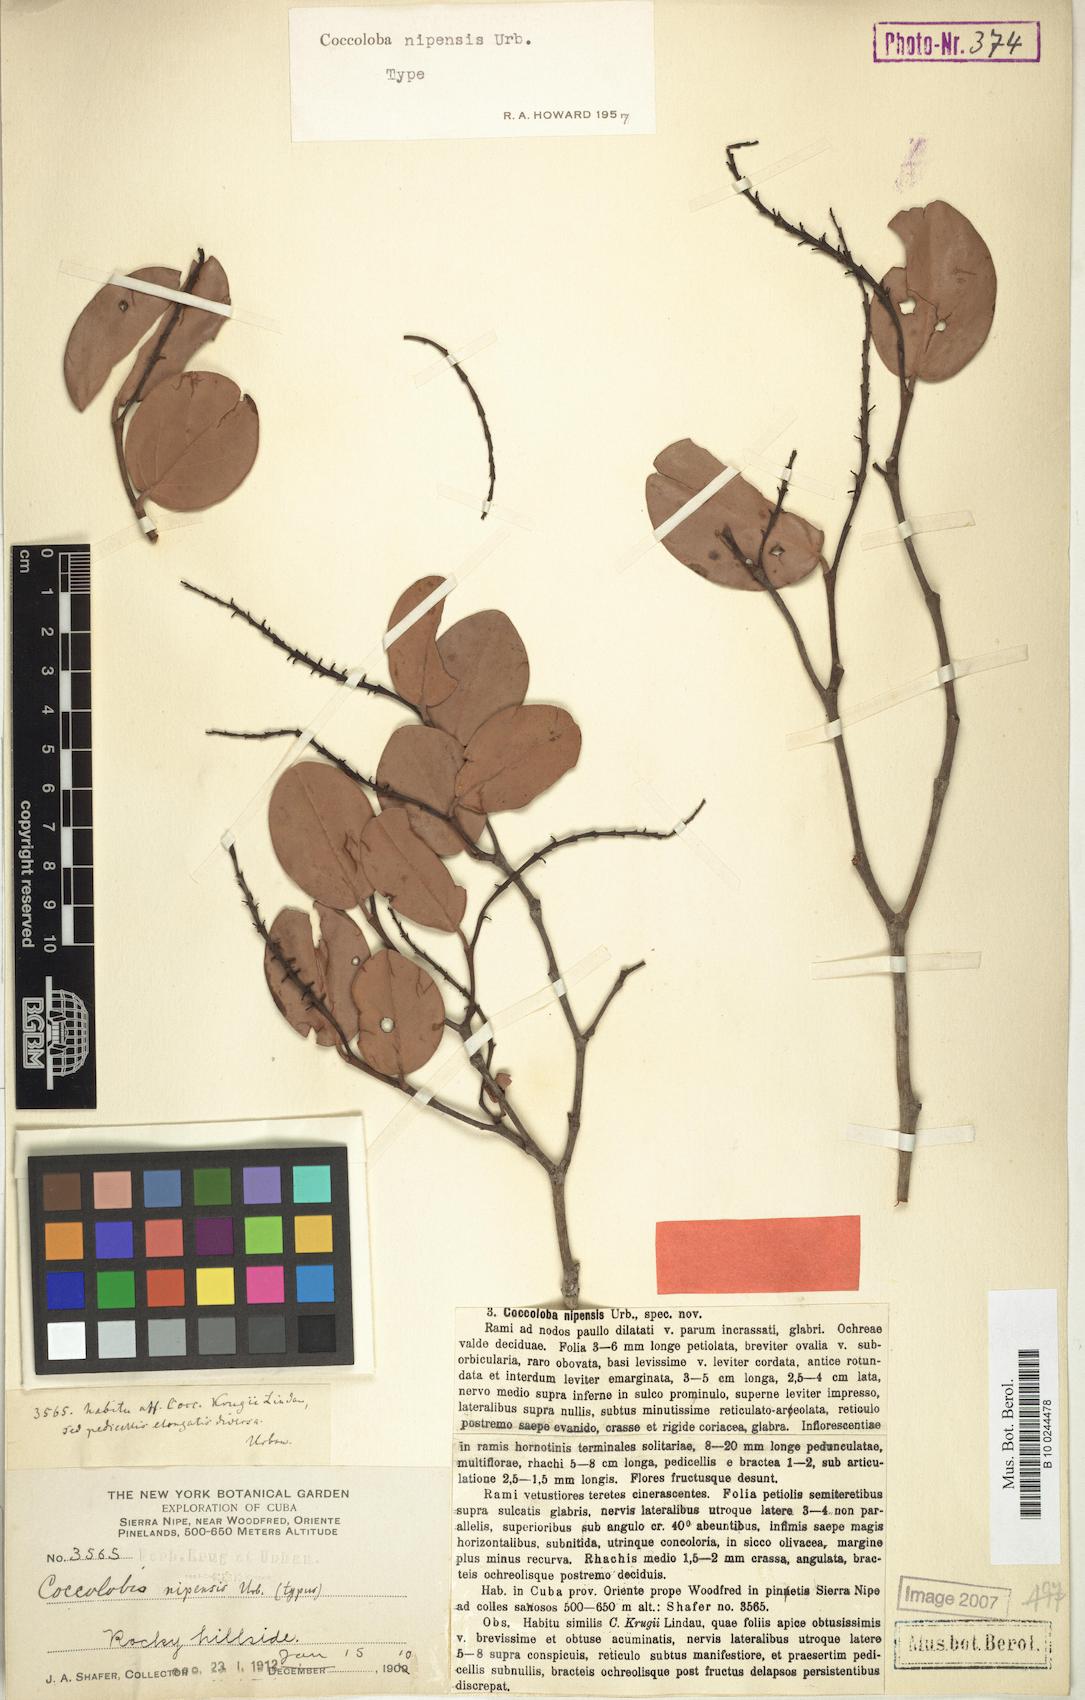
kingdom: Plantae
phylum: Tracheophyta
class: Magnoliopsida
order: Caryophyllales
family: Polygonaceae
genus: Coccoloba
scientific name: Coccoloba nipensis
